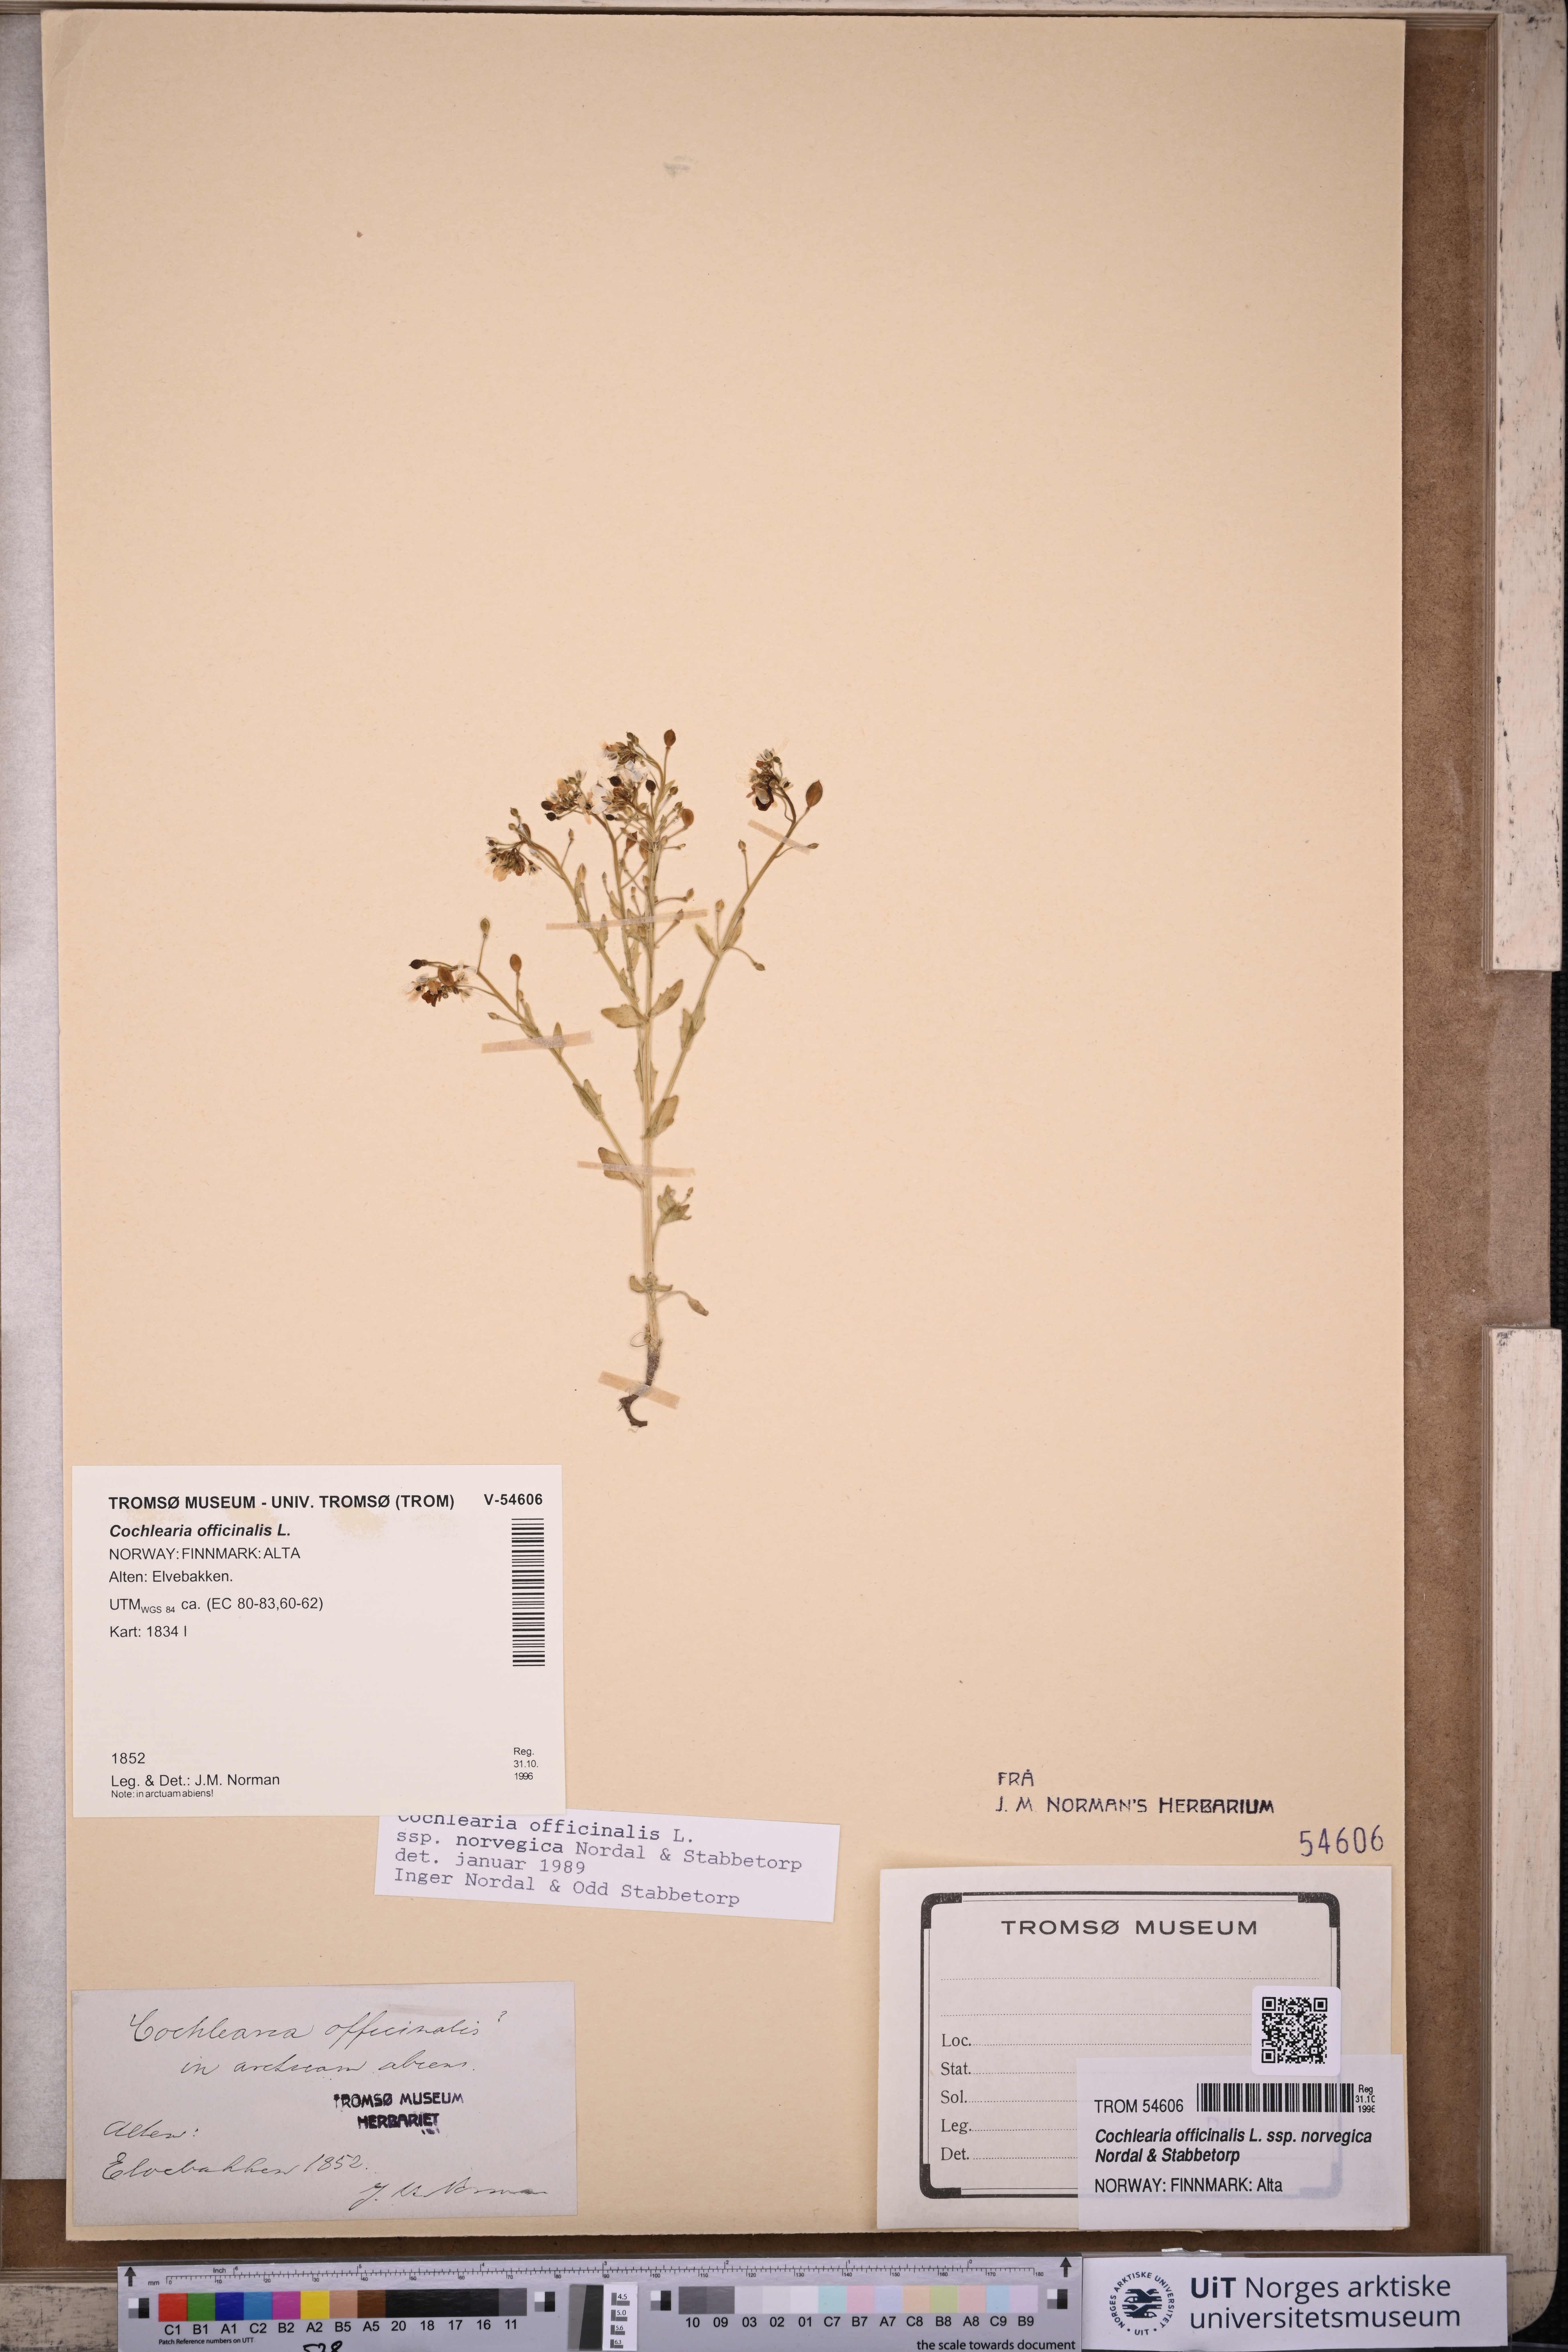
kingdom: Plantae
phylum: Tracheophyta
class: Magnoliopsida
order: Brassicales
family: Brassicaceae
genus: Cochlearia
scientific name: Cochlearia officinalis
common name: Scurvy-grass
